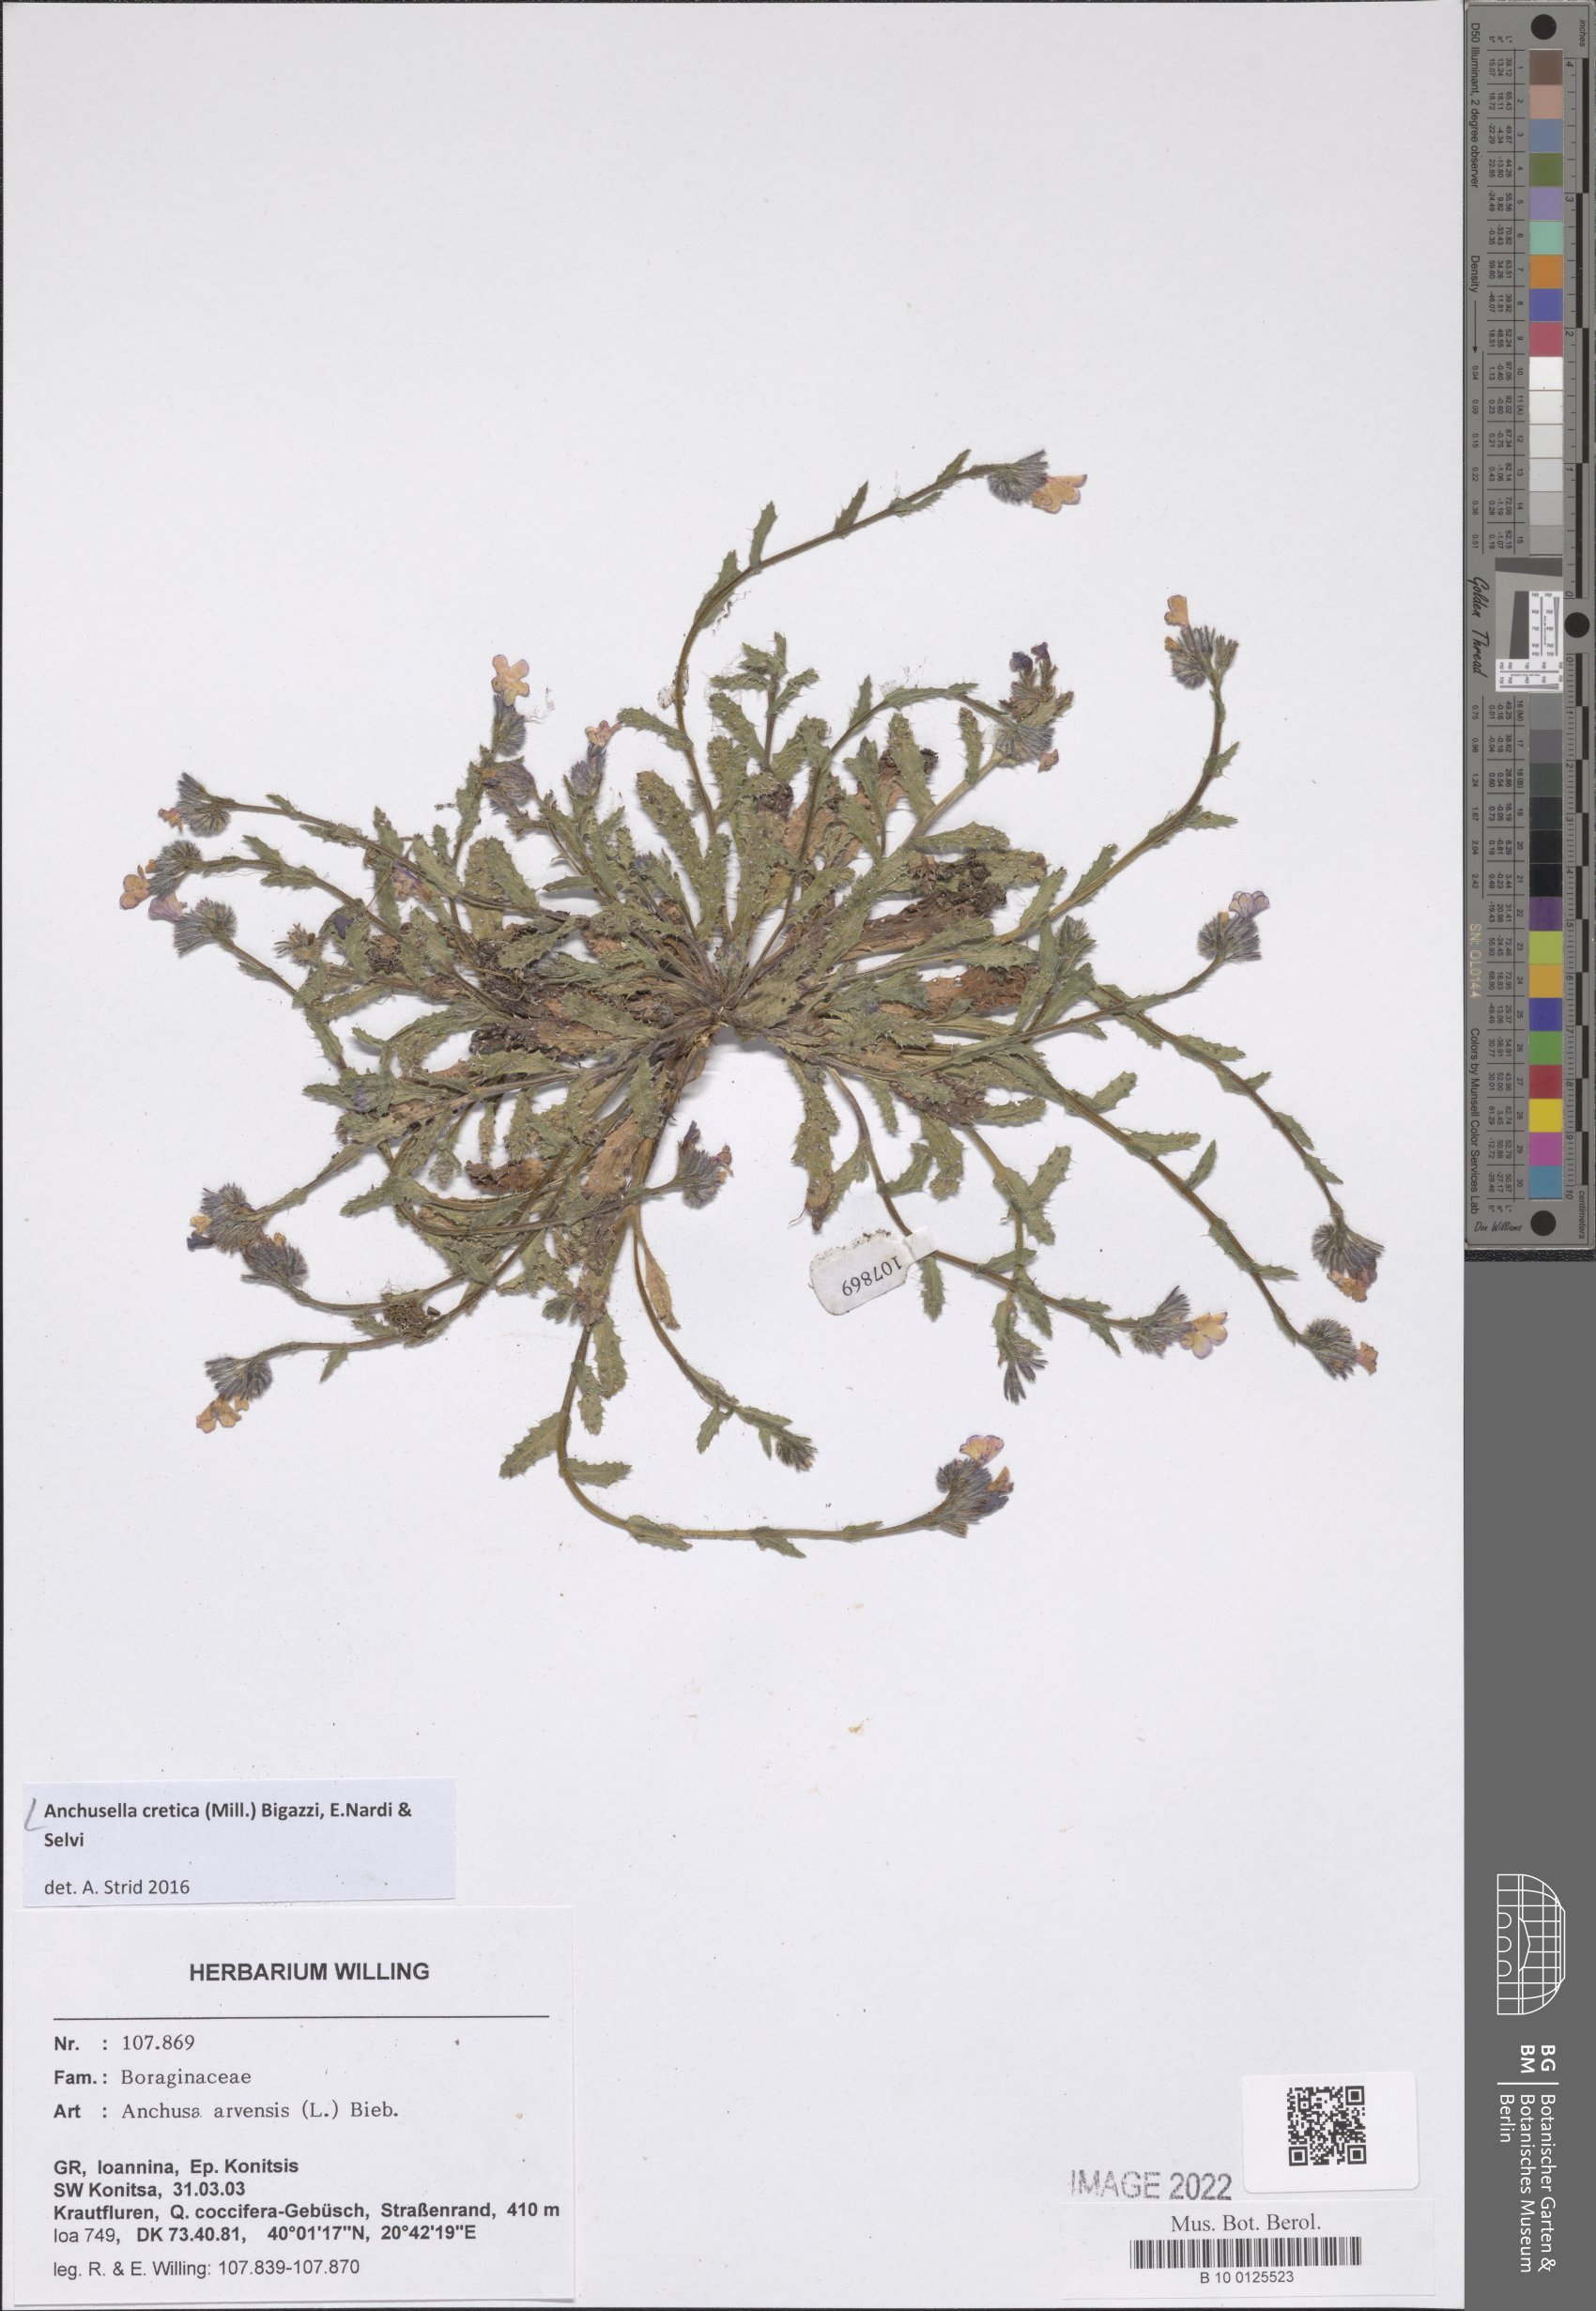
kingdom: Plantae
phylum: Tracheophyta
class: Magnoliopsida
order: Boraginales
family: Boraginaceae
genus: Anchusella
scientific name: Anchusella cretica
